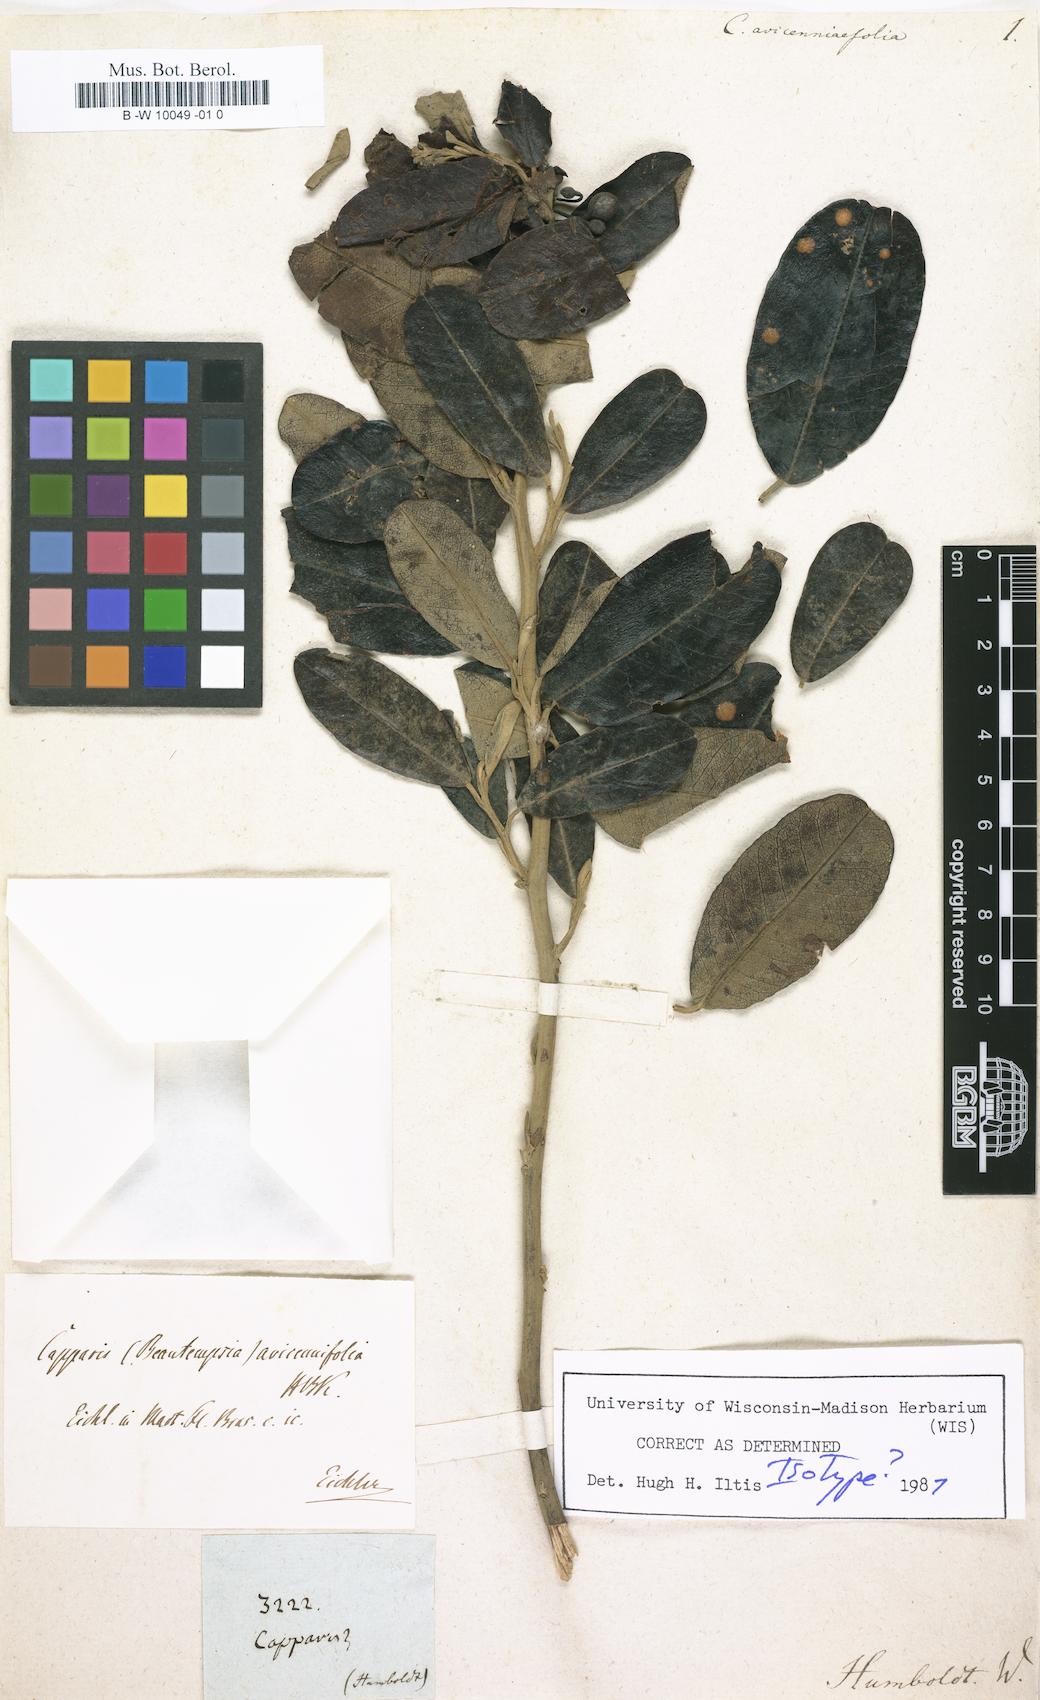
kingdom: Plantae
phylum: Tracheophyta
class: Magnoliopsida
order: Brassicales
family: Capparaceae
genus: Beautempsia
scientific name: Beautempsia avicenniifolia
